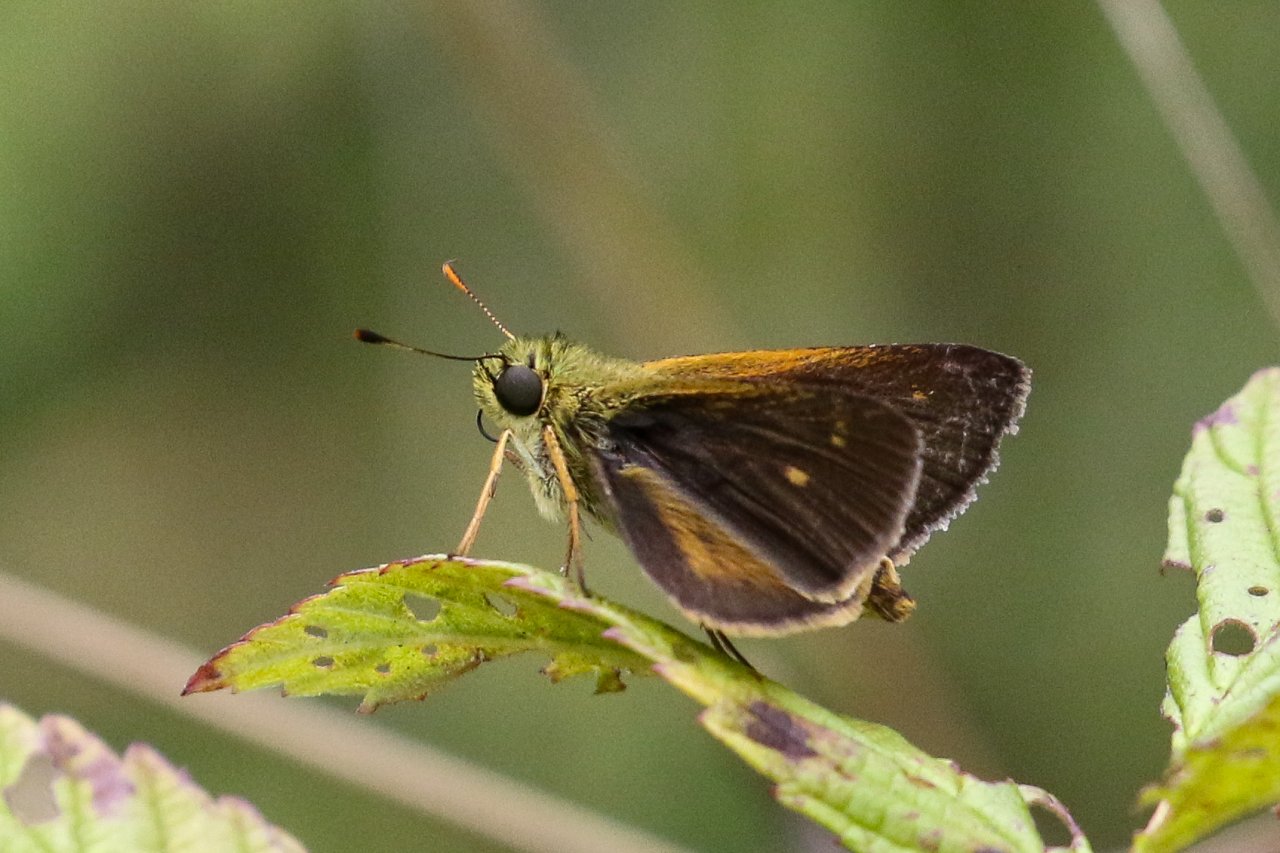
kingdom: Animalia
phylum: Arthropoda
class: Insecta
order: Lepidoptera
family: Hesperiidae
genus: Polites
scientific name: Polites egeremet
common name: Northern Broken-Dash
